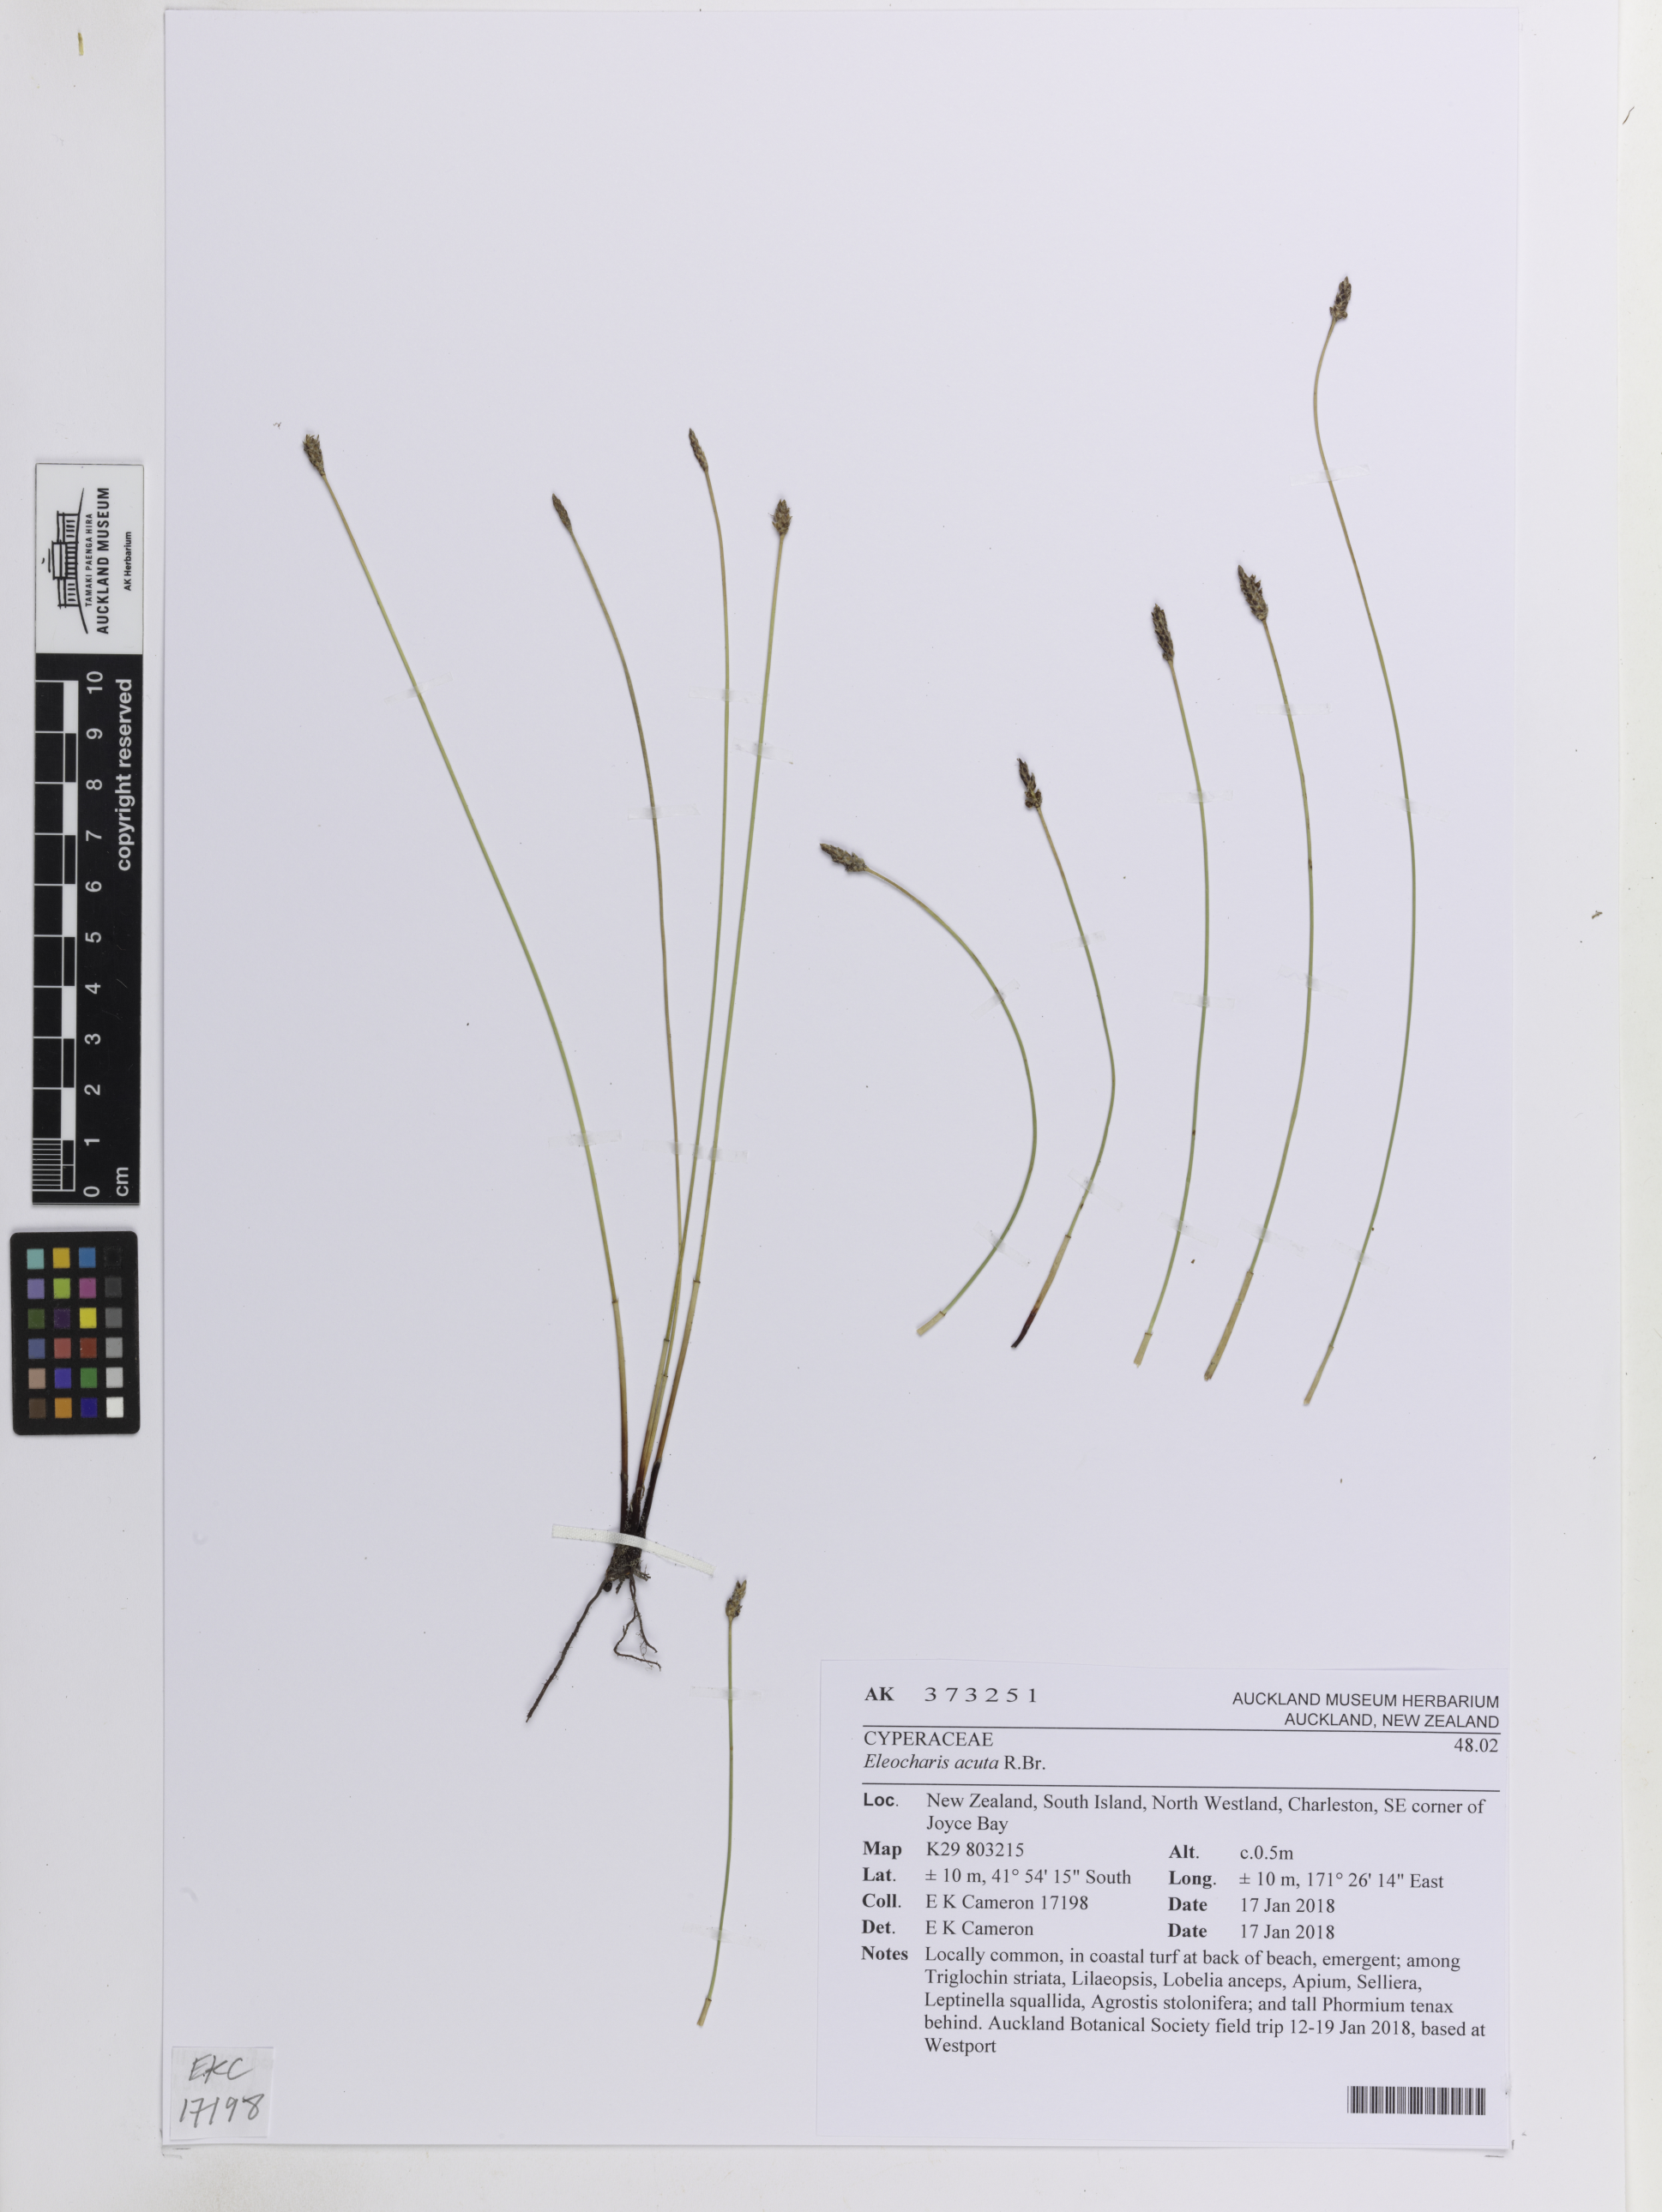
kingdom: Plantae
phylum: Tracheophyta
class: Liliopsida
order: Poales
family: Cyperaceae
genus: Eleocharis
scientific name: Eleocharis acuta
